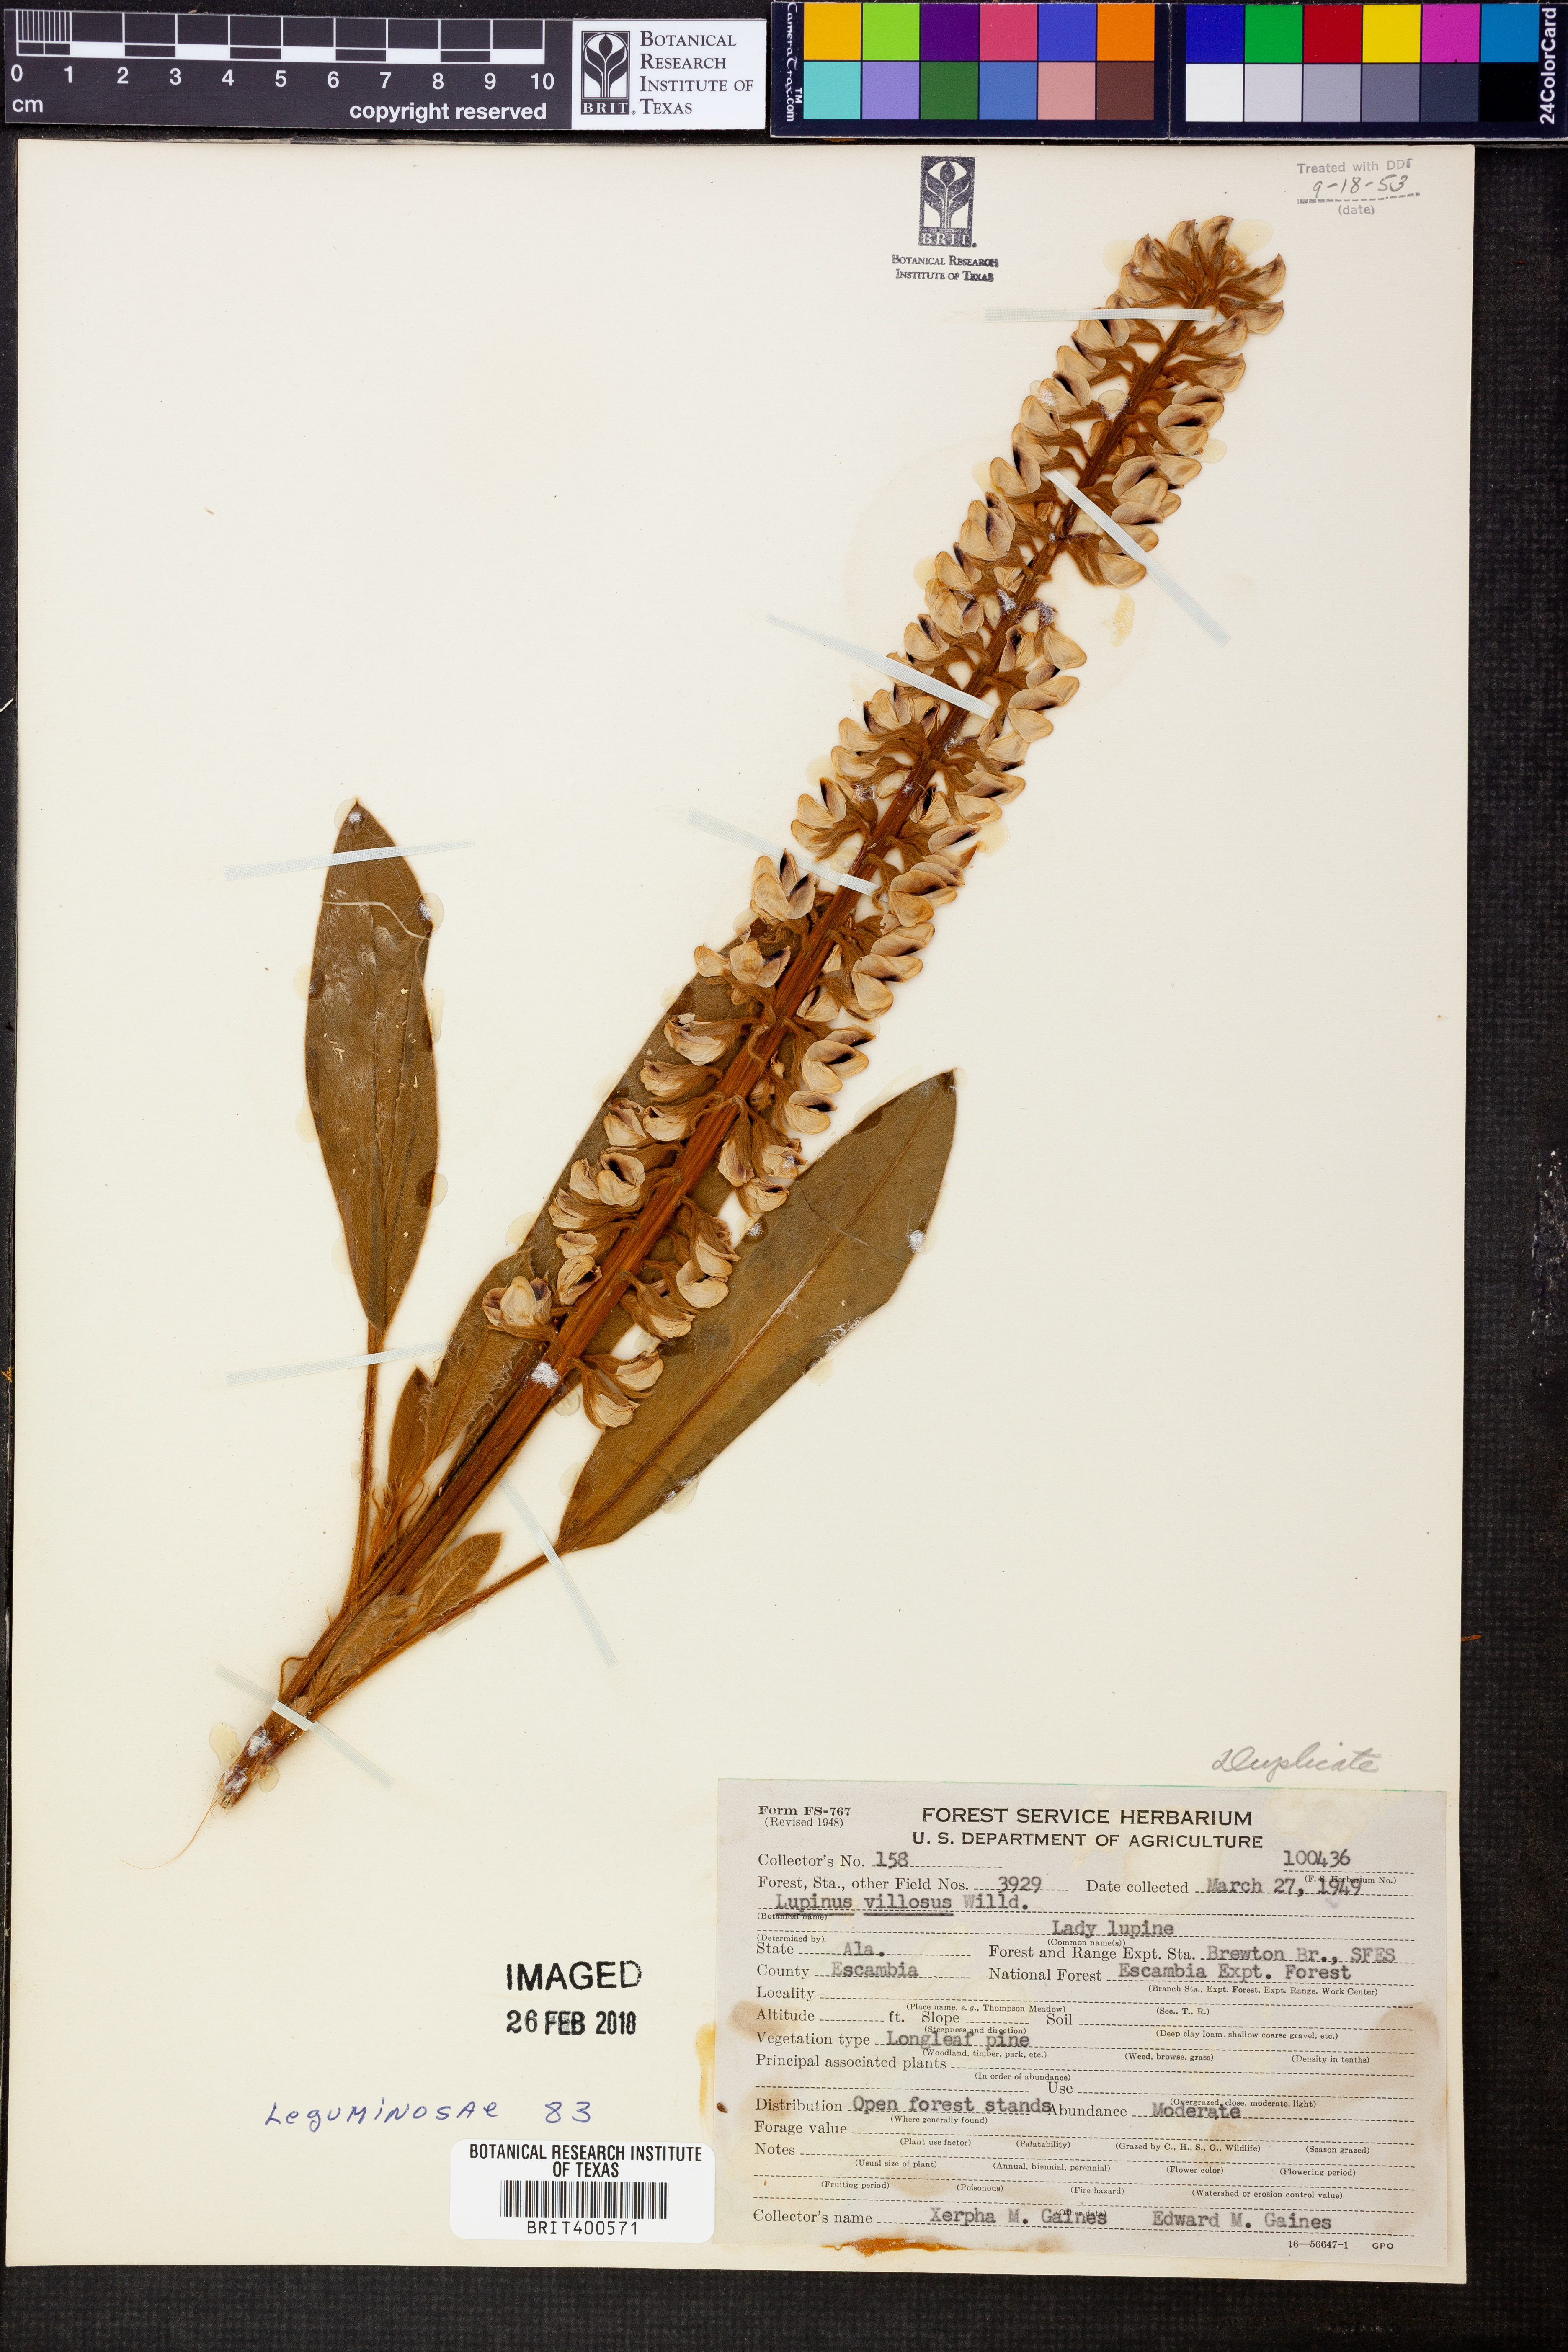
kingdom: Plantae
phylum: Tracheophyta
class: Magnoliopsida
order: Fabales
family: Fabaceae
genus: Lupinus
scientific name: Lupinus villosus
